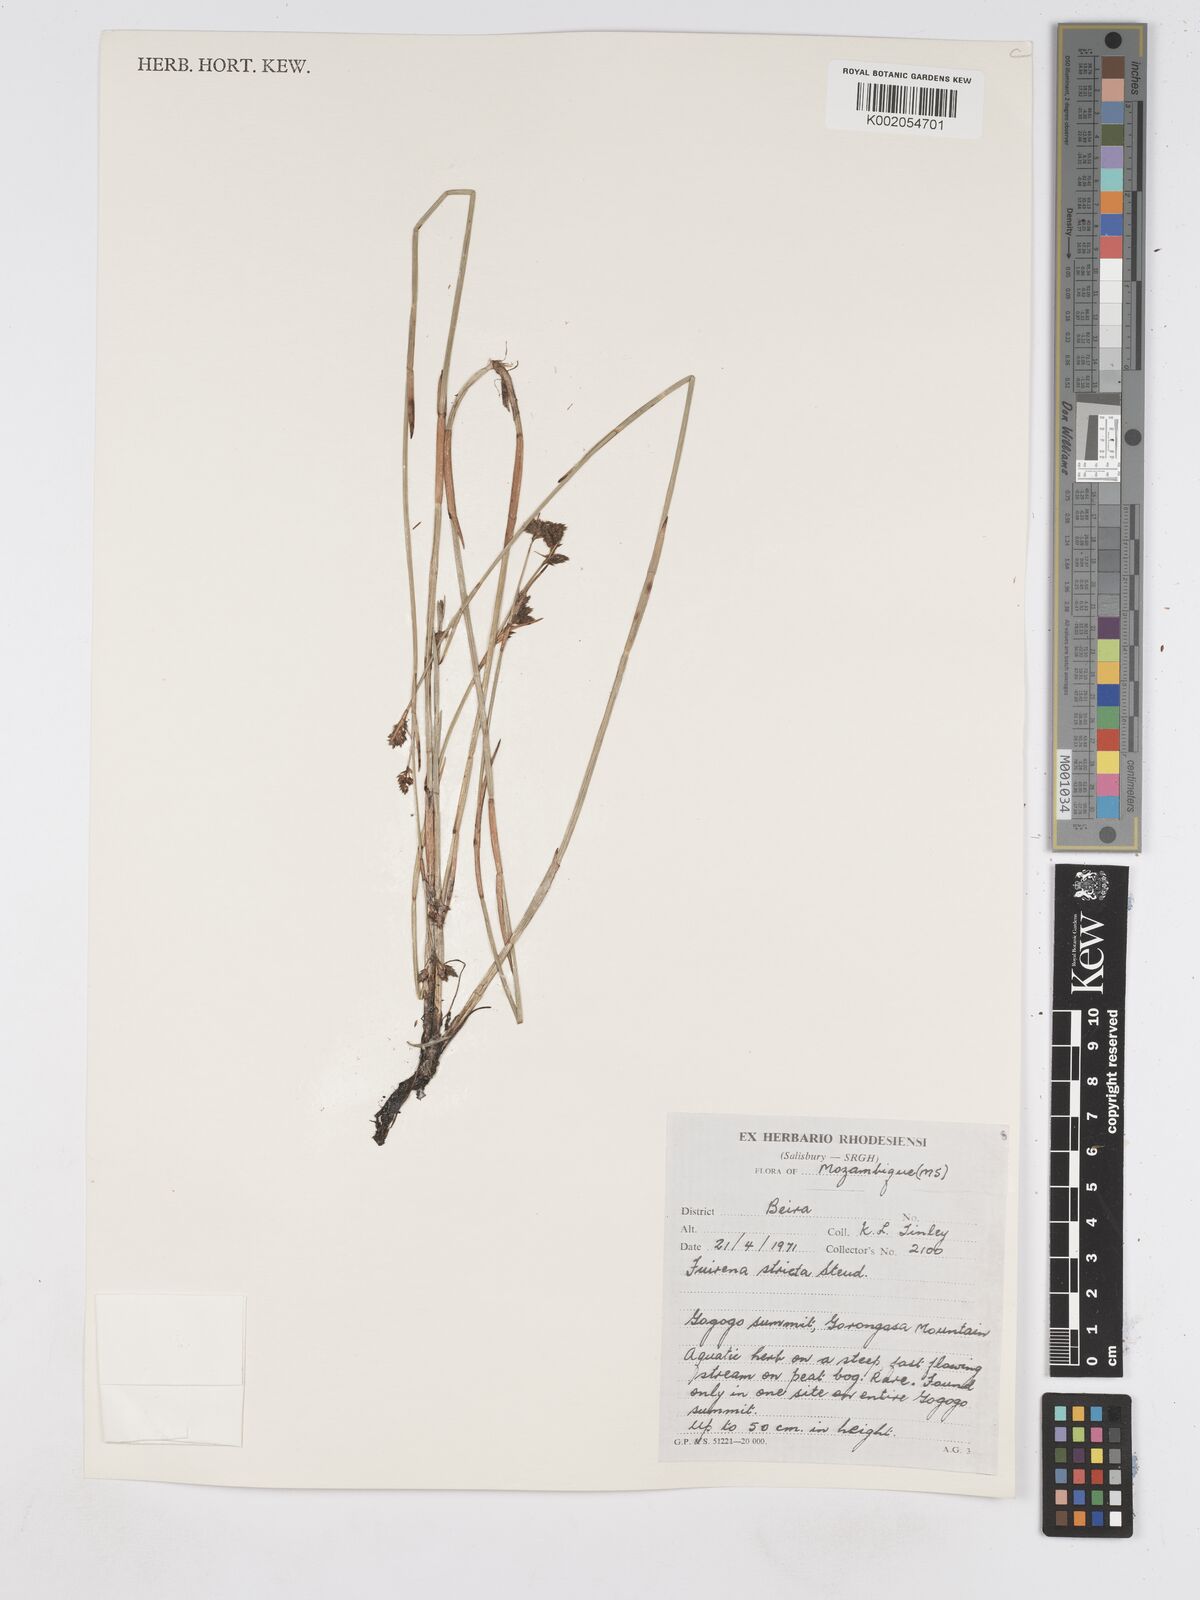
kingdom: Plantae
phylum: Tracheophyta
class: Liliopsida
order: Poales
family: Cyperaceae
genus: Fuirena
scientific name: Fuirena stricta
